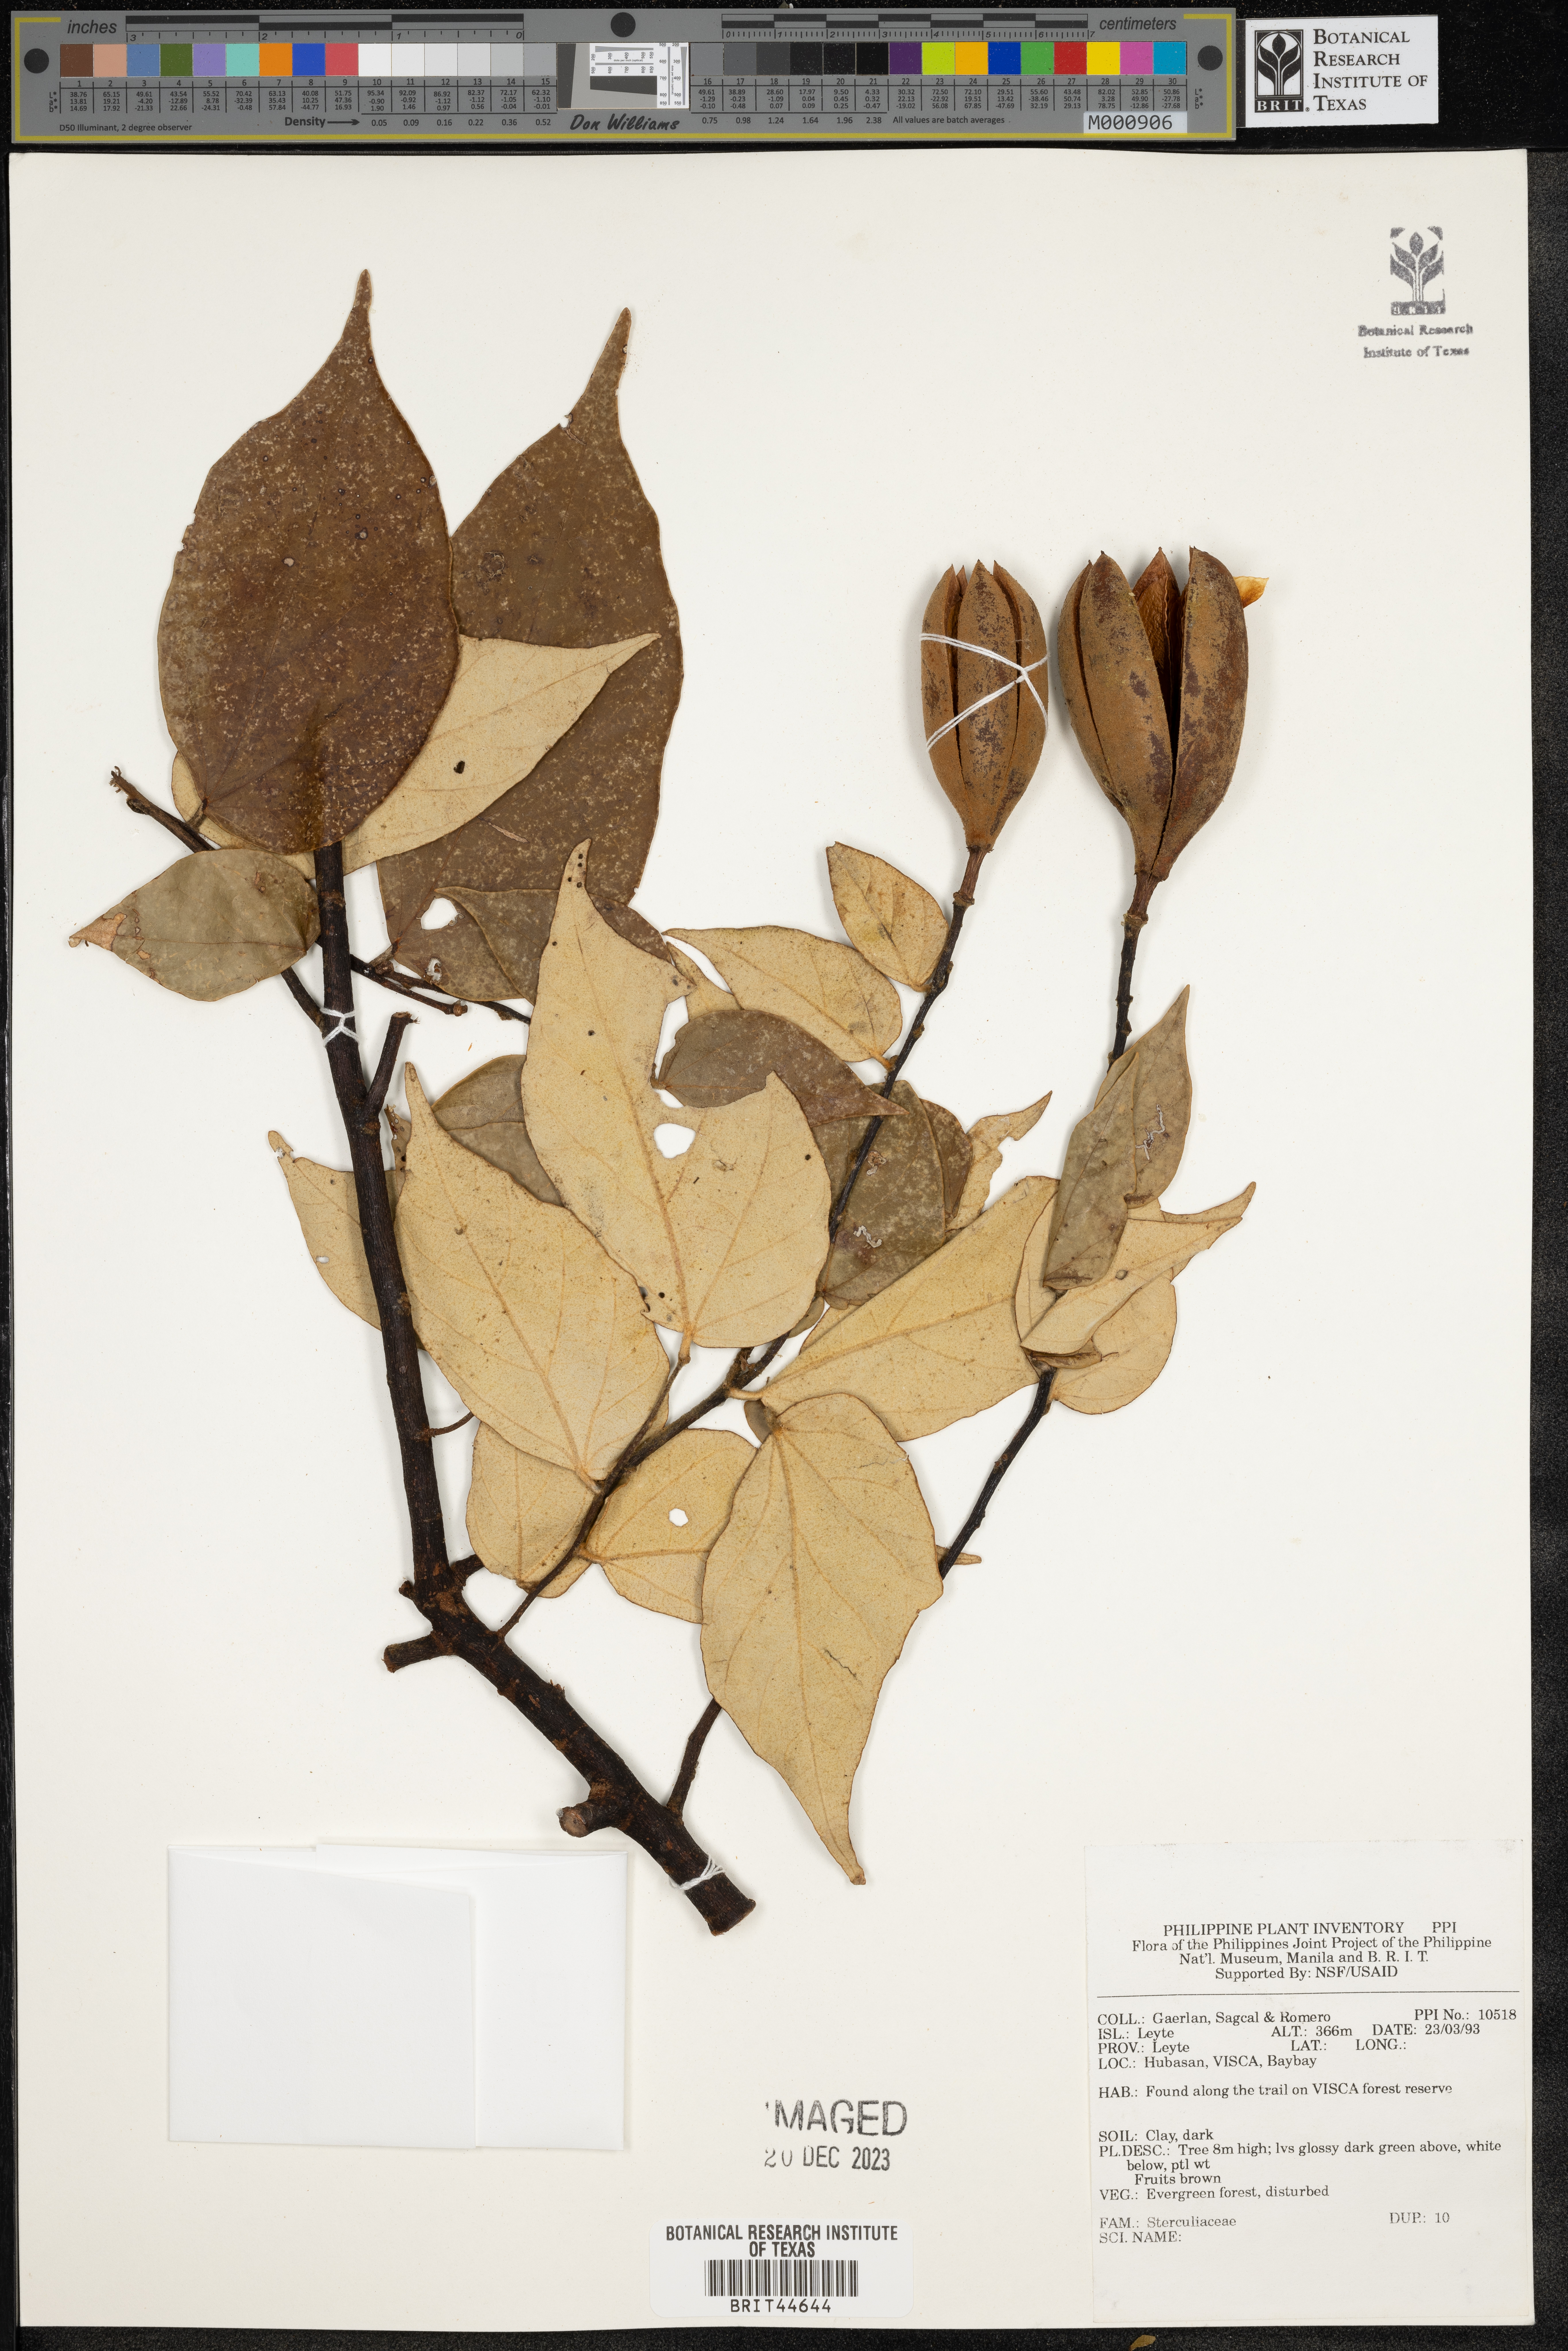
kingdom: Plantae
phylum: Tracheophyta
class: Magnoliopsida
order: Malvales
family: Sterculiaceae
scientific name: Sterculiaceae
